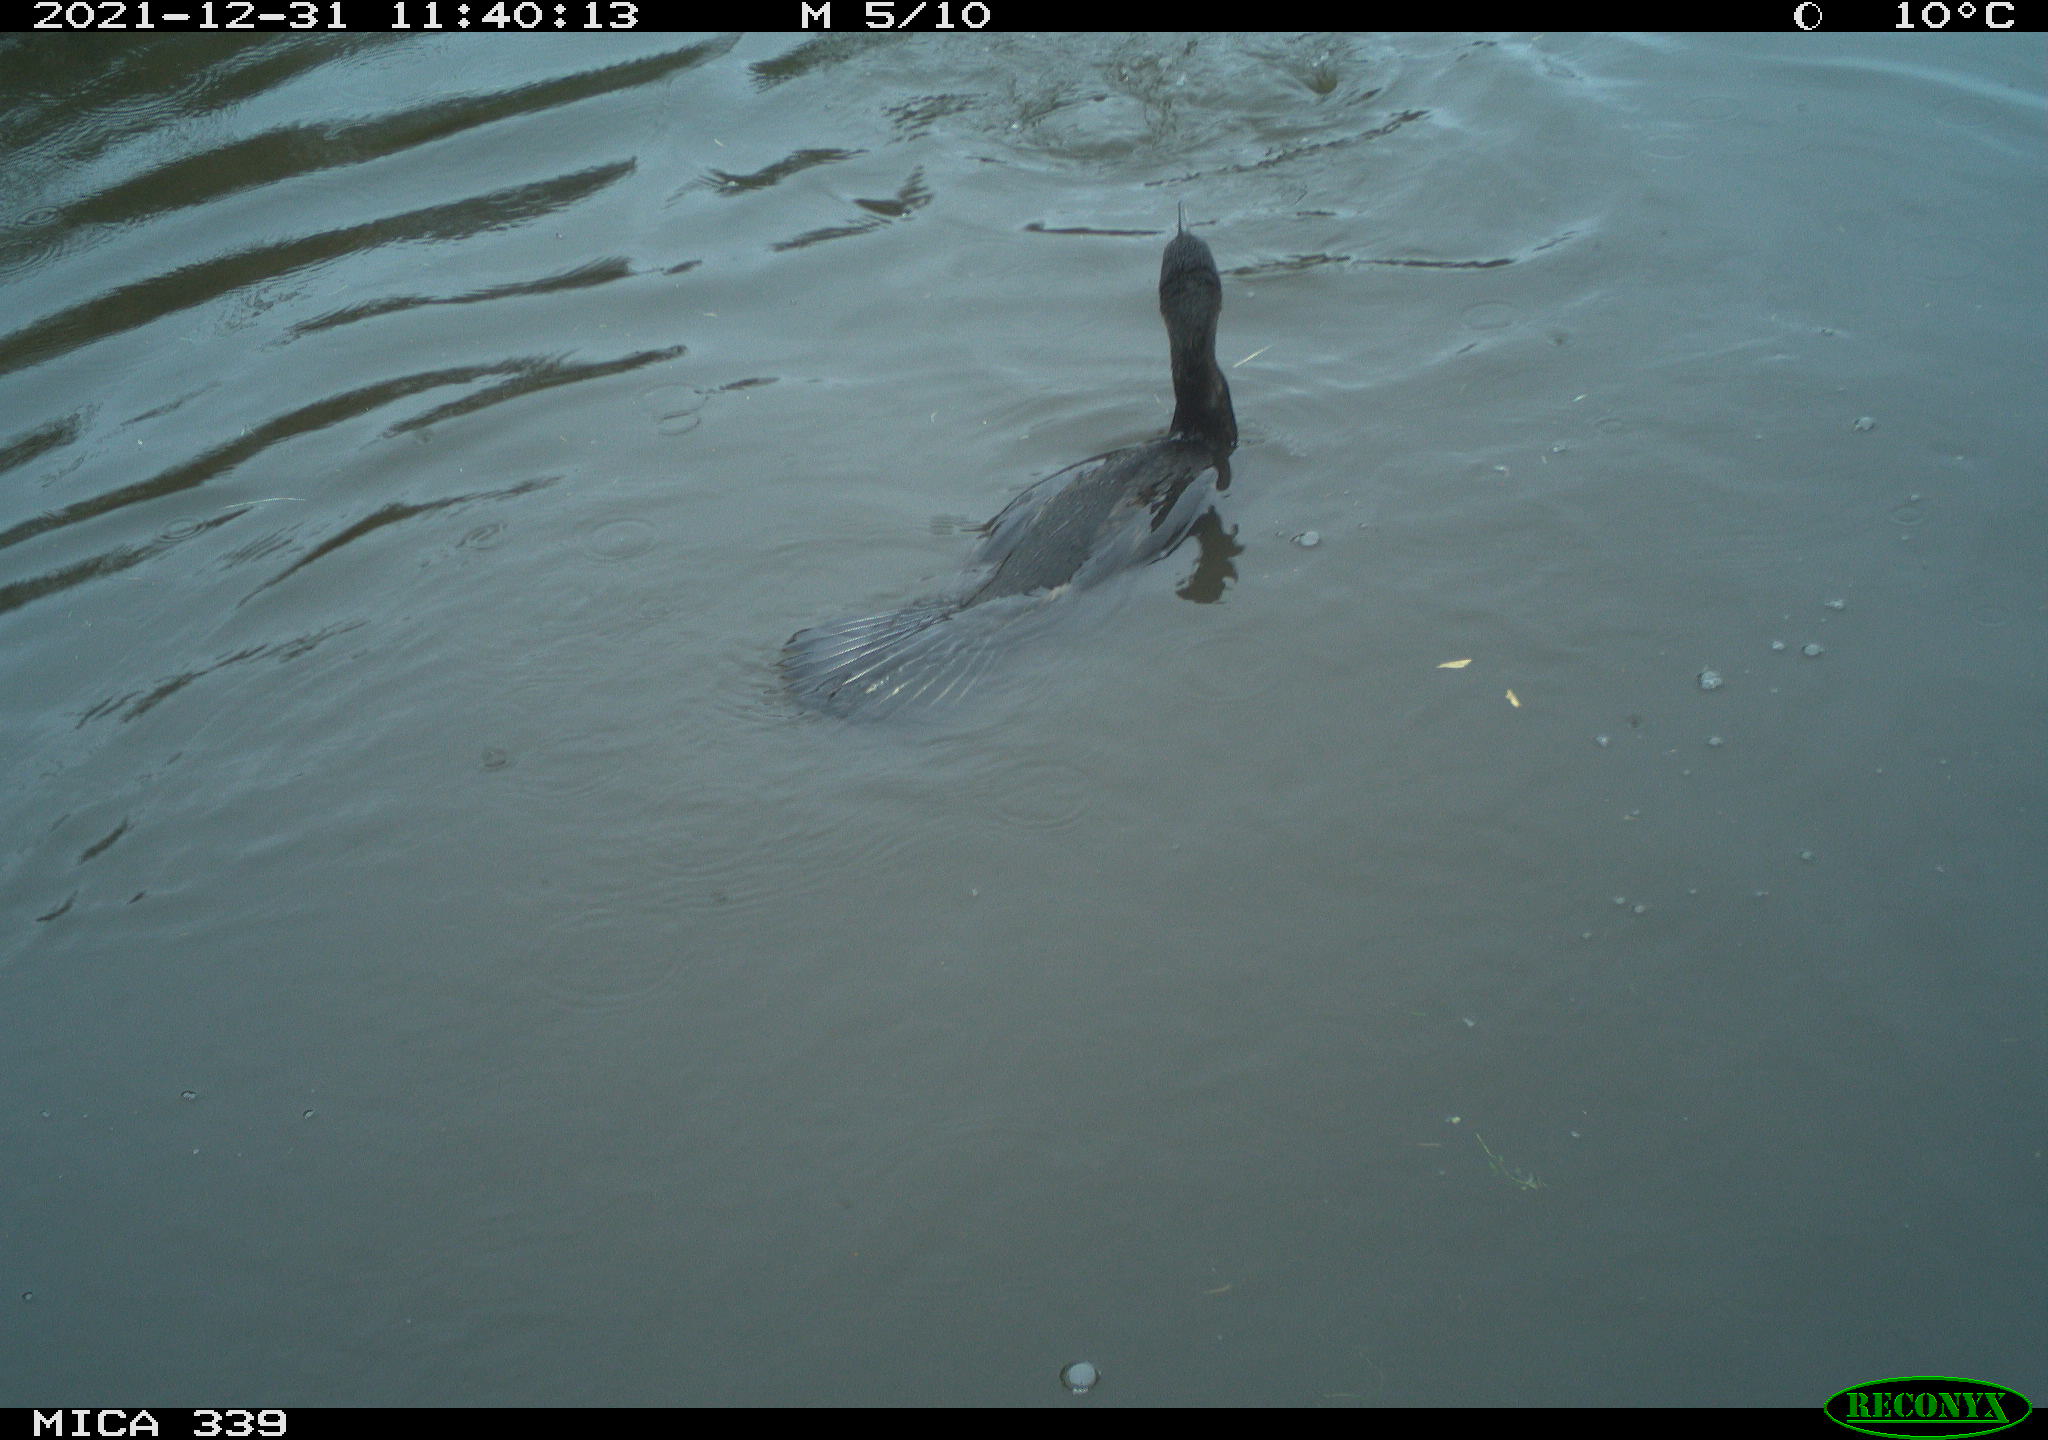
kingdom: Animalia
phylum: Chordata
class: Aves
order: Suliformes
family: Phalacrocoracidae
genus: Phalacrocorax
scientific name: Phalacrocorax carbo
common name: Great cormorant
